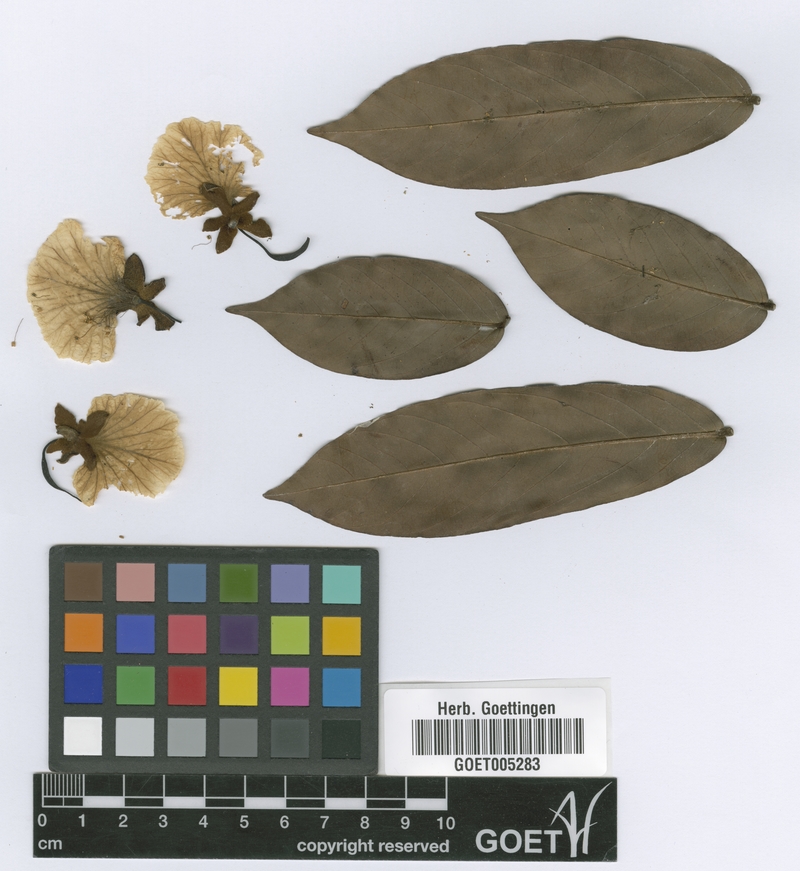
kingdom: Plantae
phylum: Tracheophyta
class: Magnoliopsida
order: Fabales
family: Fabaceae
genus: Swartzia
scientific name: Swartzia sprucei
